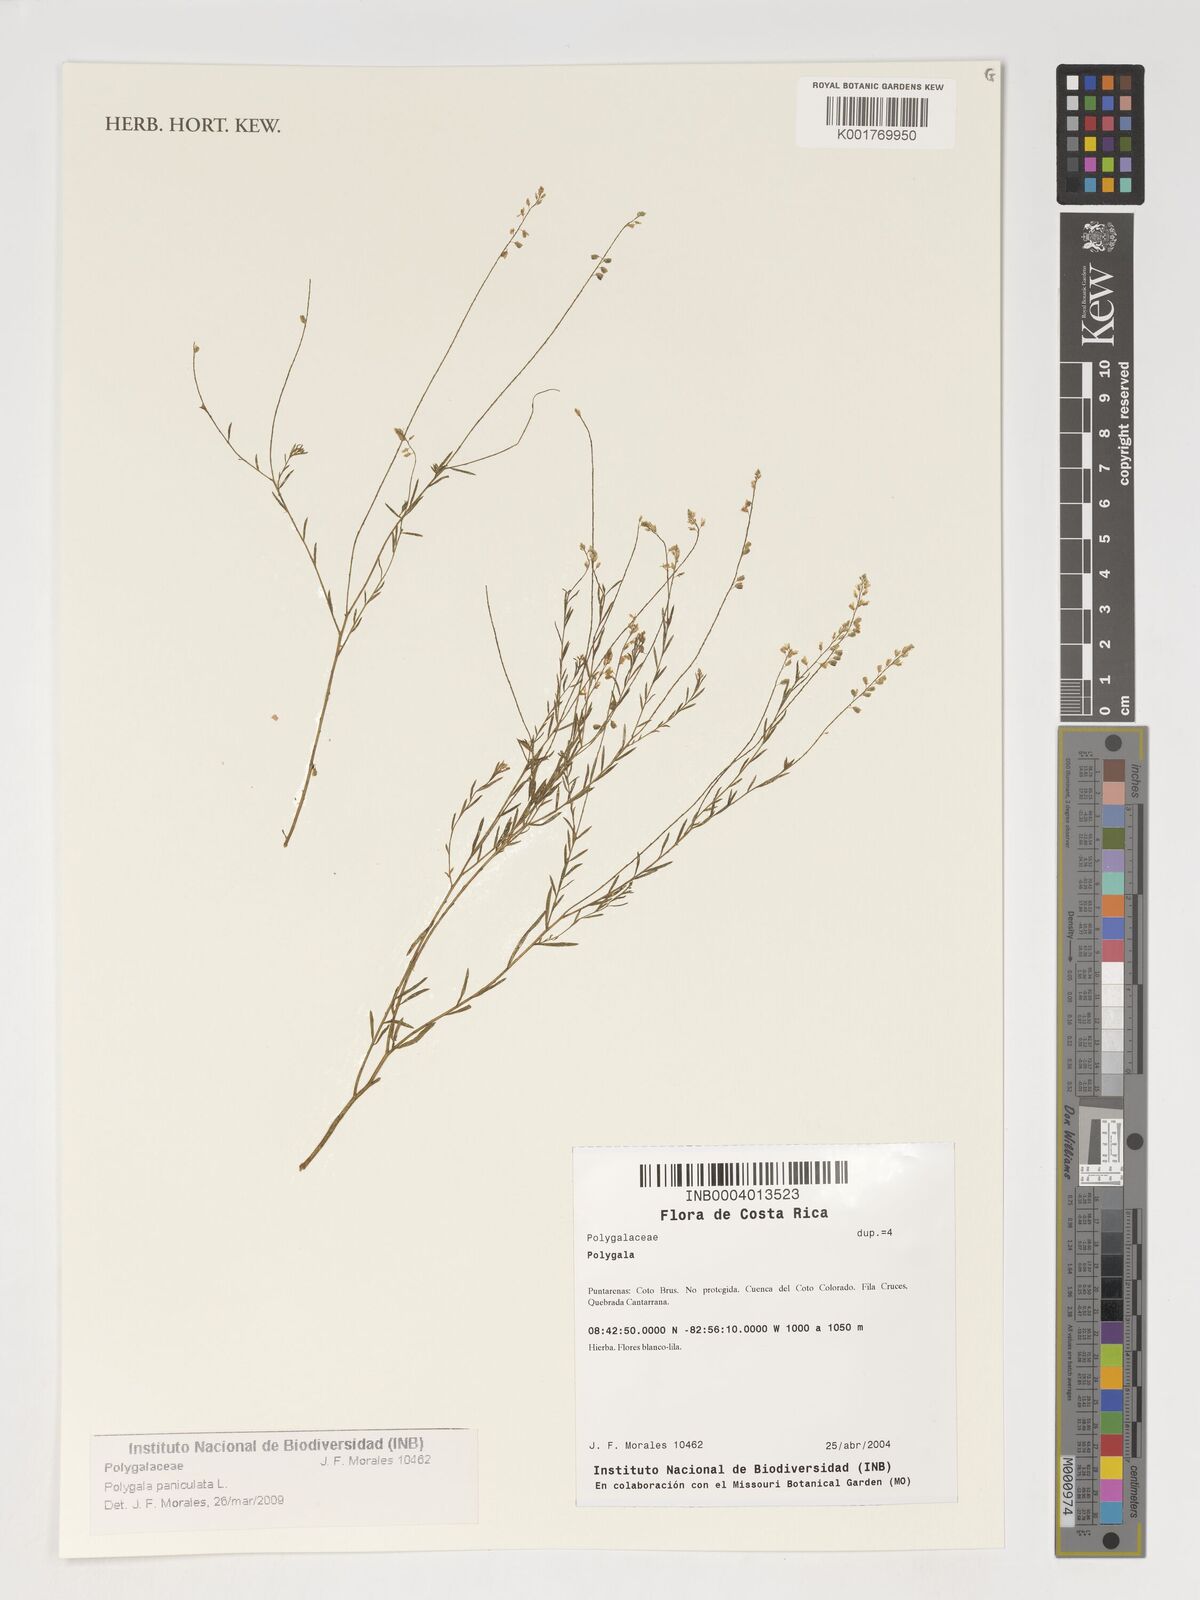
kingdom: Plantae
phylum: Tracheophyta
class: Magnoliopsida
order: Fabales
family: Polygalaceae
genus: Polygala
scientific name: Polygala paniculata
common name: Orosne
